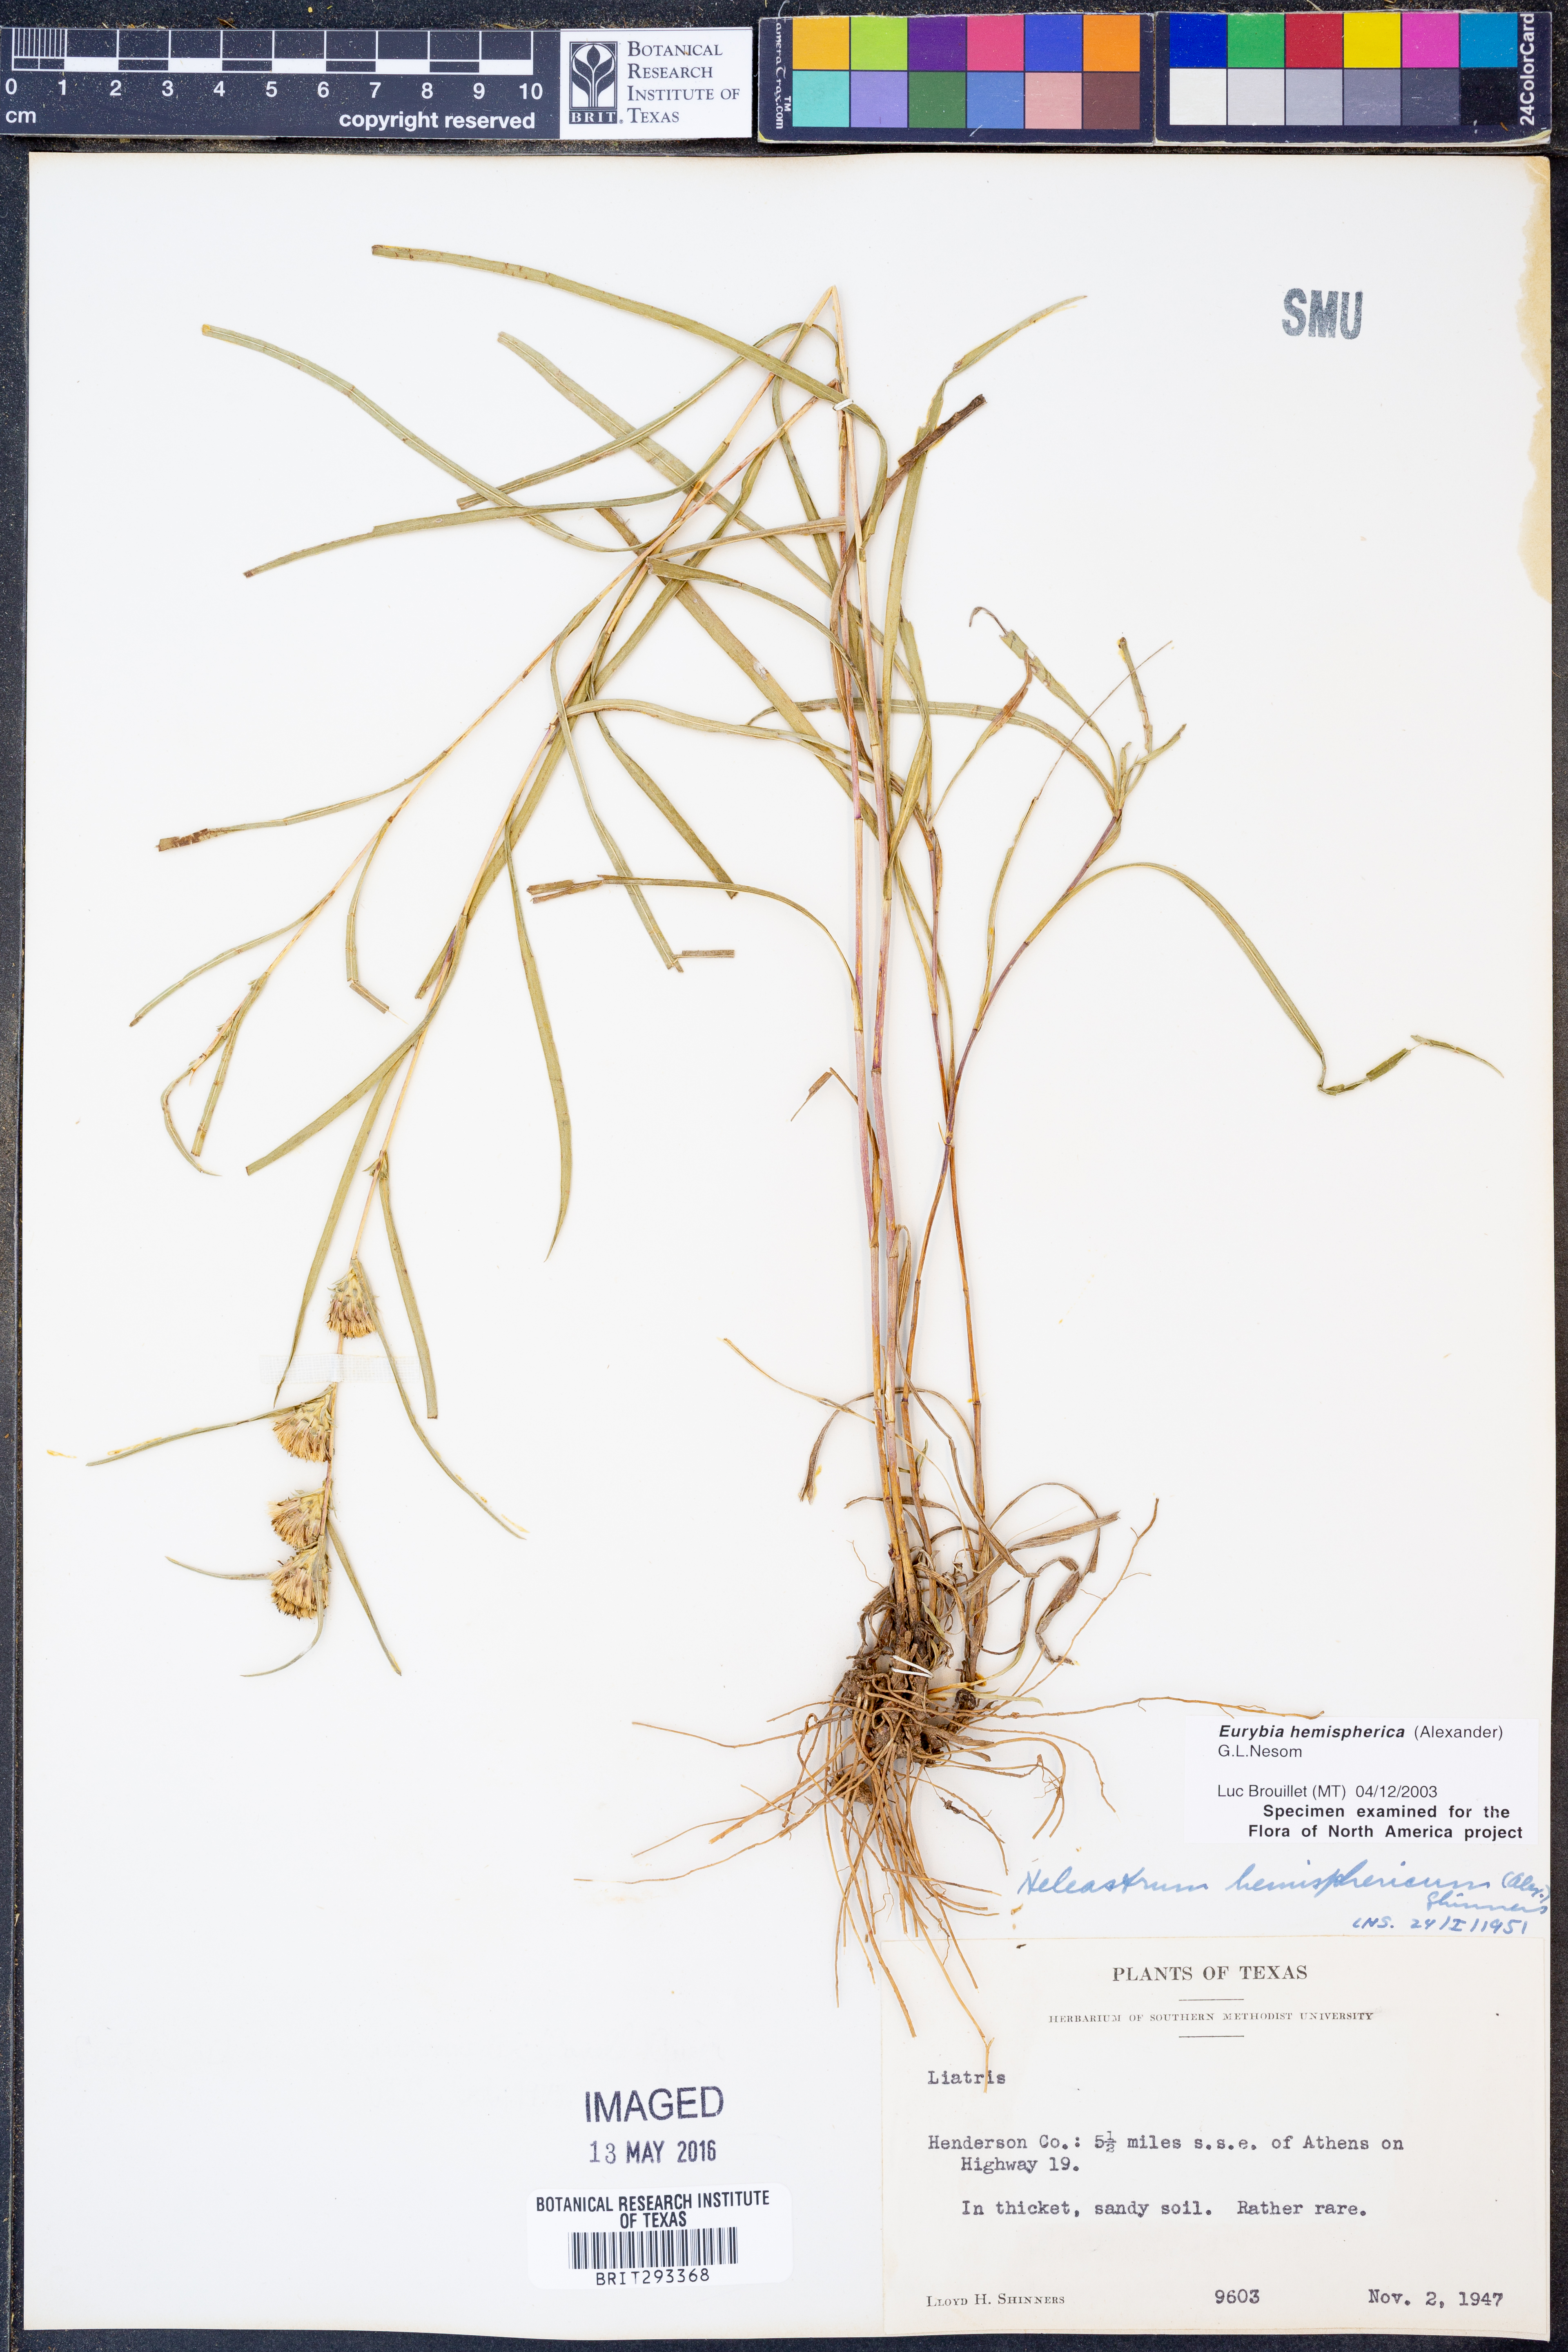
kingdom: Plantae
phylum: Tracheophyta
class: Magnoliopsida
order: Asterales
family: Asteraceae
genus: Eurybia
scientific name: Eurybia hemispherica
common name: Showy aster
